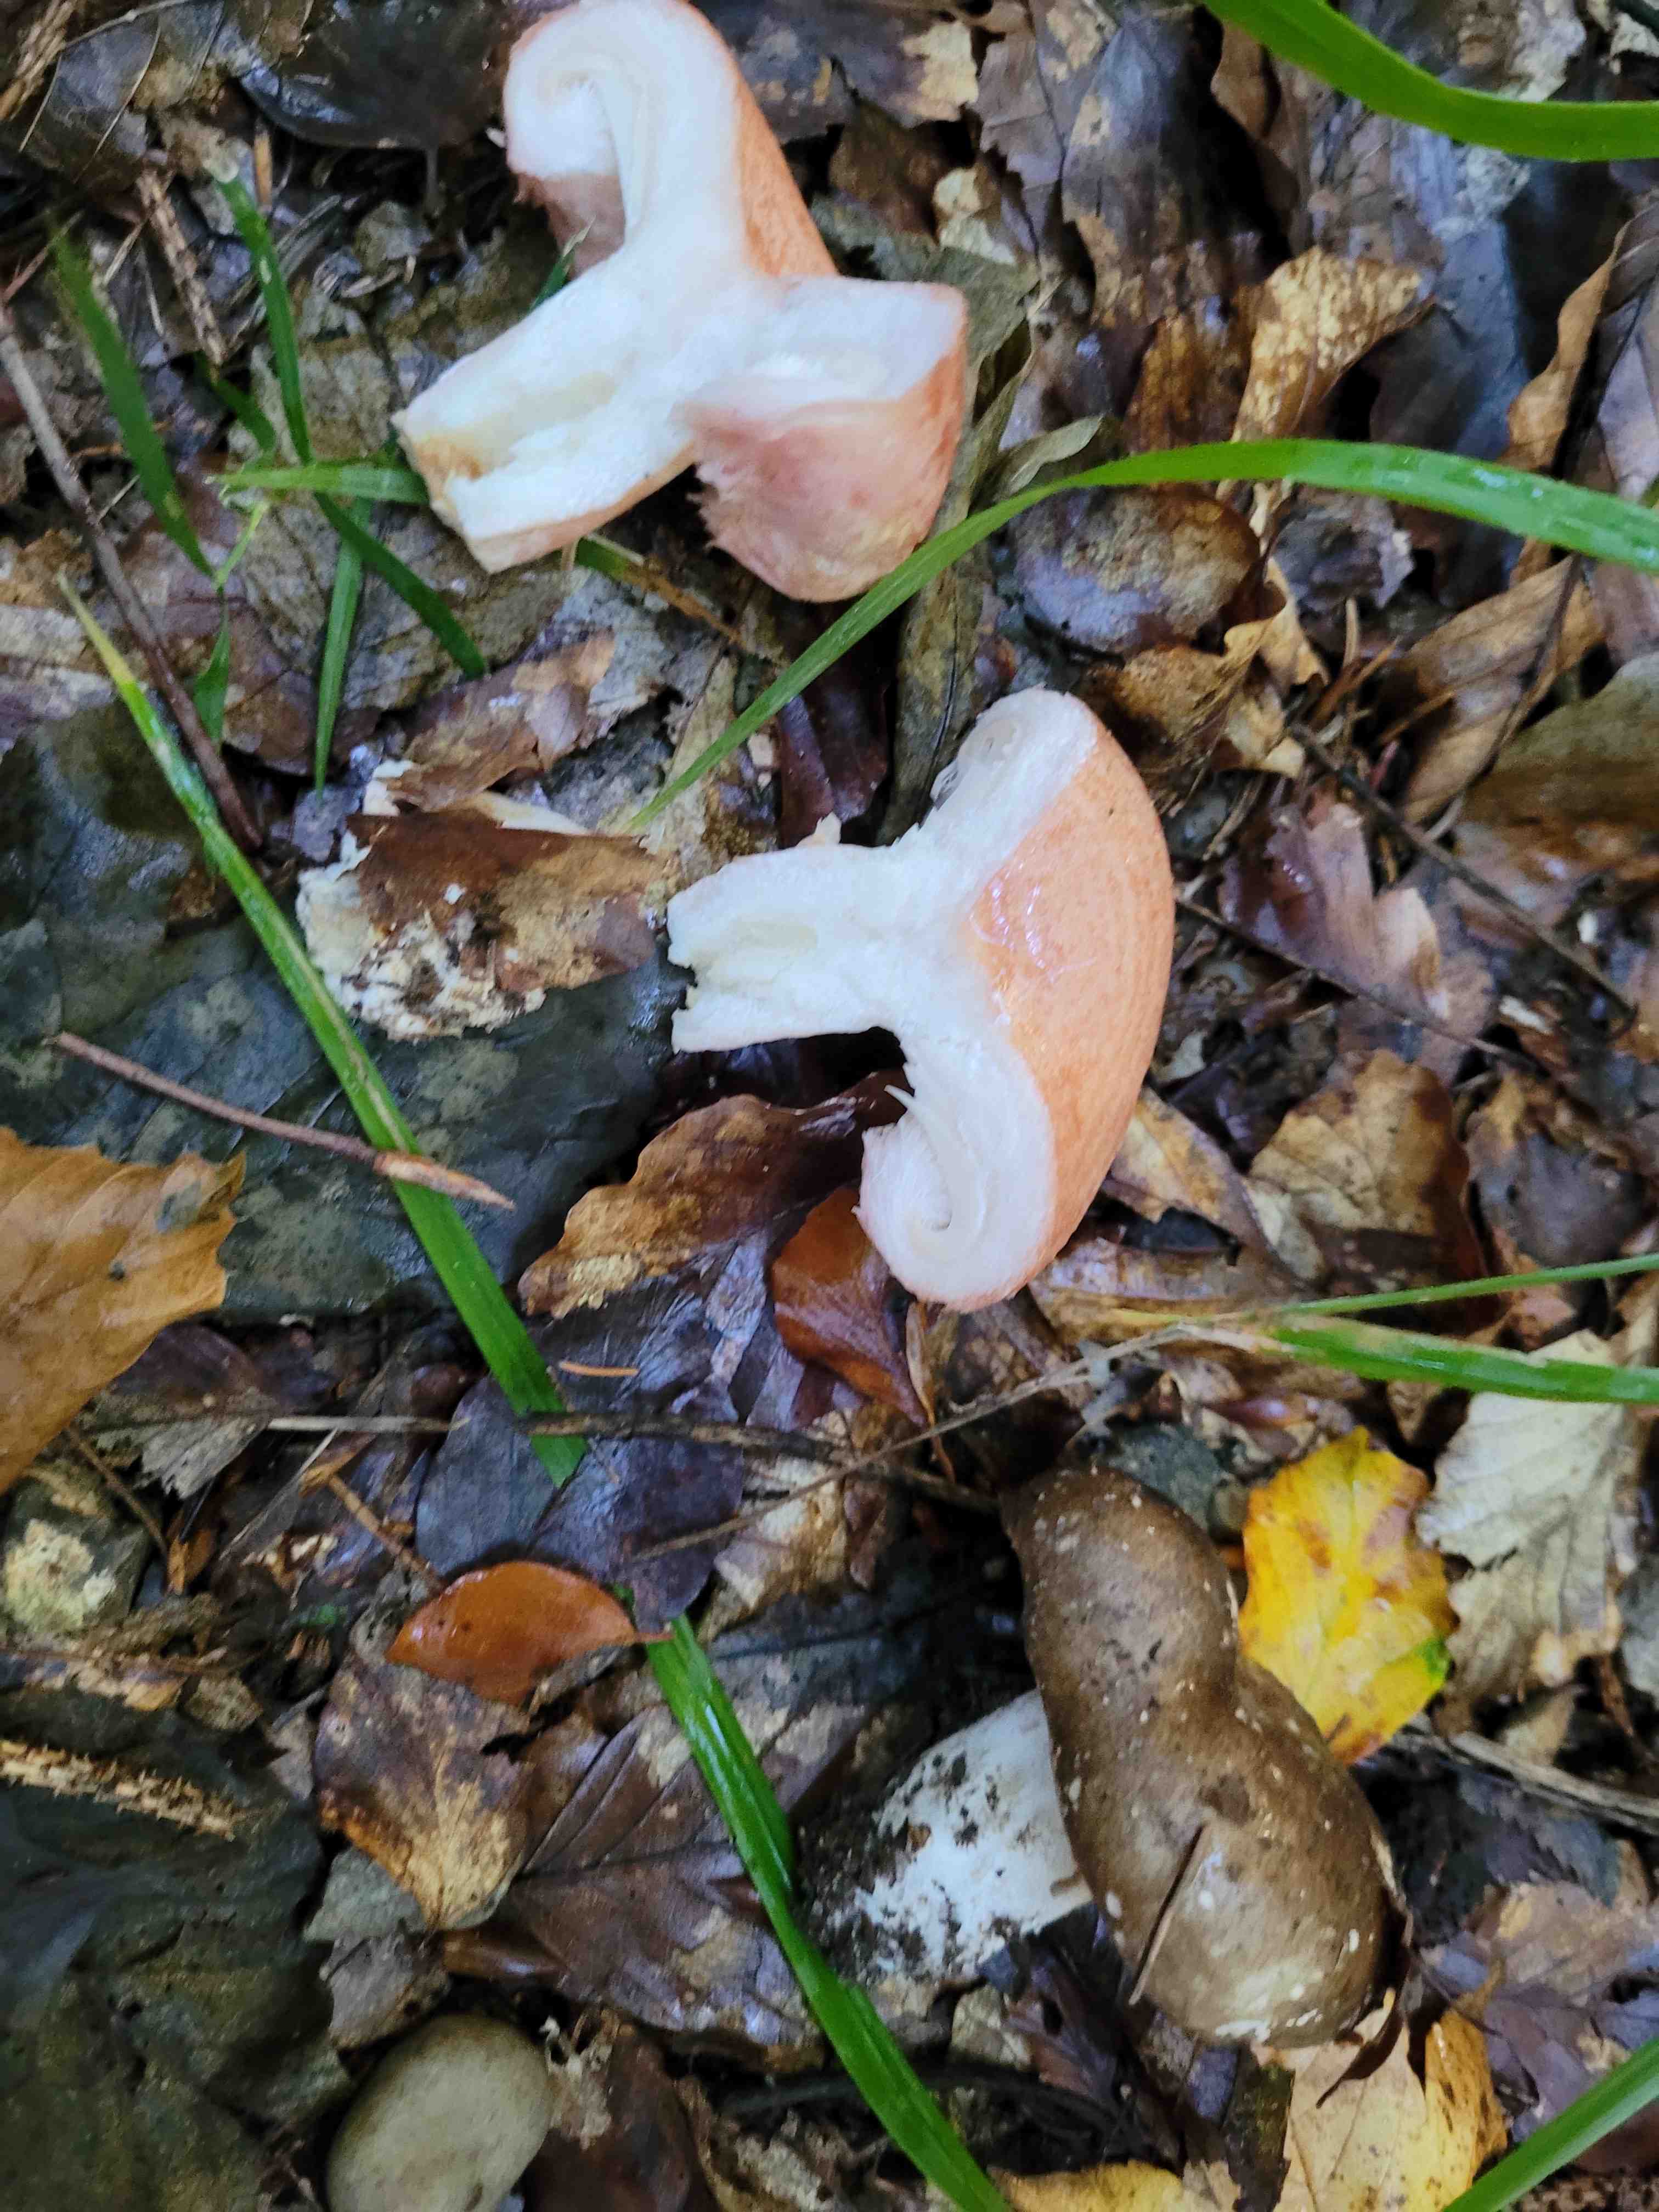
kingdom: Fungi
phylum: Basidiomycota
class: Agaricomycetes
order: Russulales
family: Russulaceae
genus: Lactarius
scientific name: Lactarius torminosus
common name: skægget mælkehat
